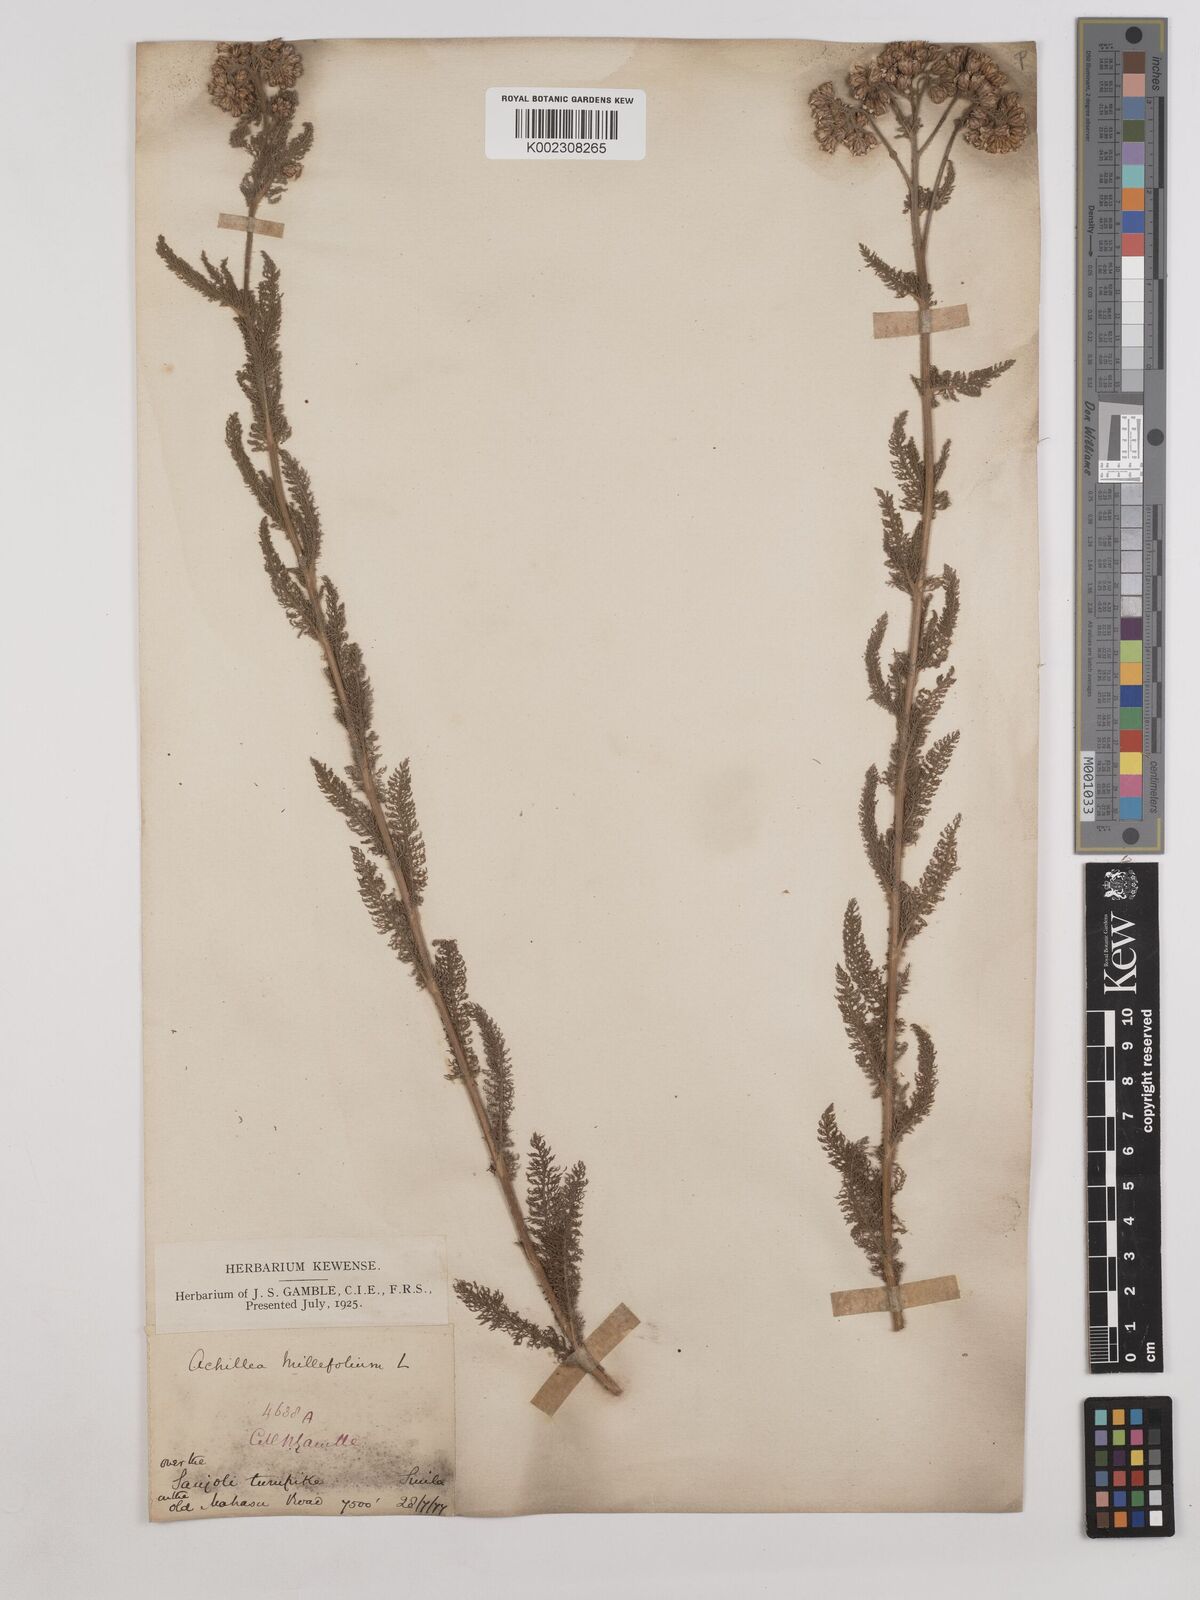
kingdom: Plantae
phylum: Tracheophyta
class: Magnoliopsida
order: Asterales
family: Asteraceae
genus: Achillea
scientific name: Achillea millefolium
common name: Yarrow
